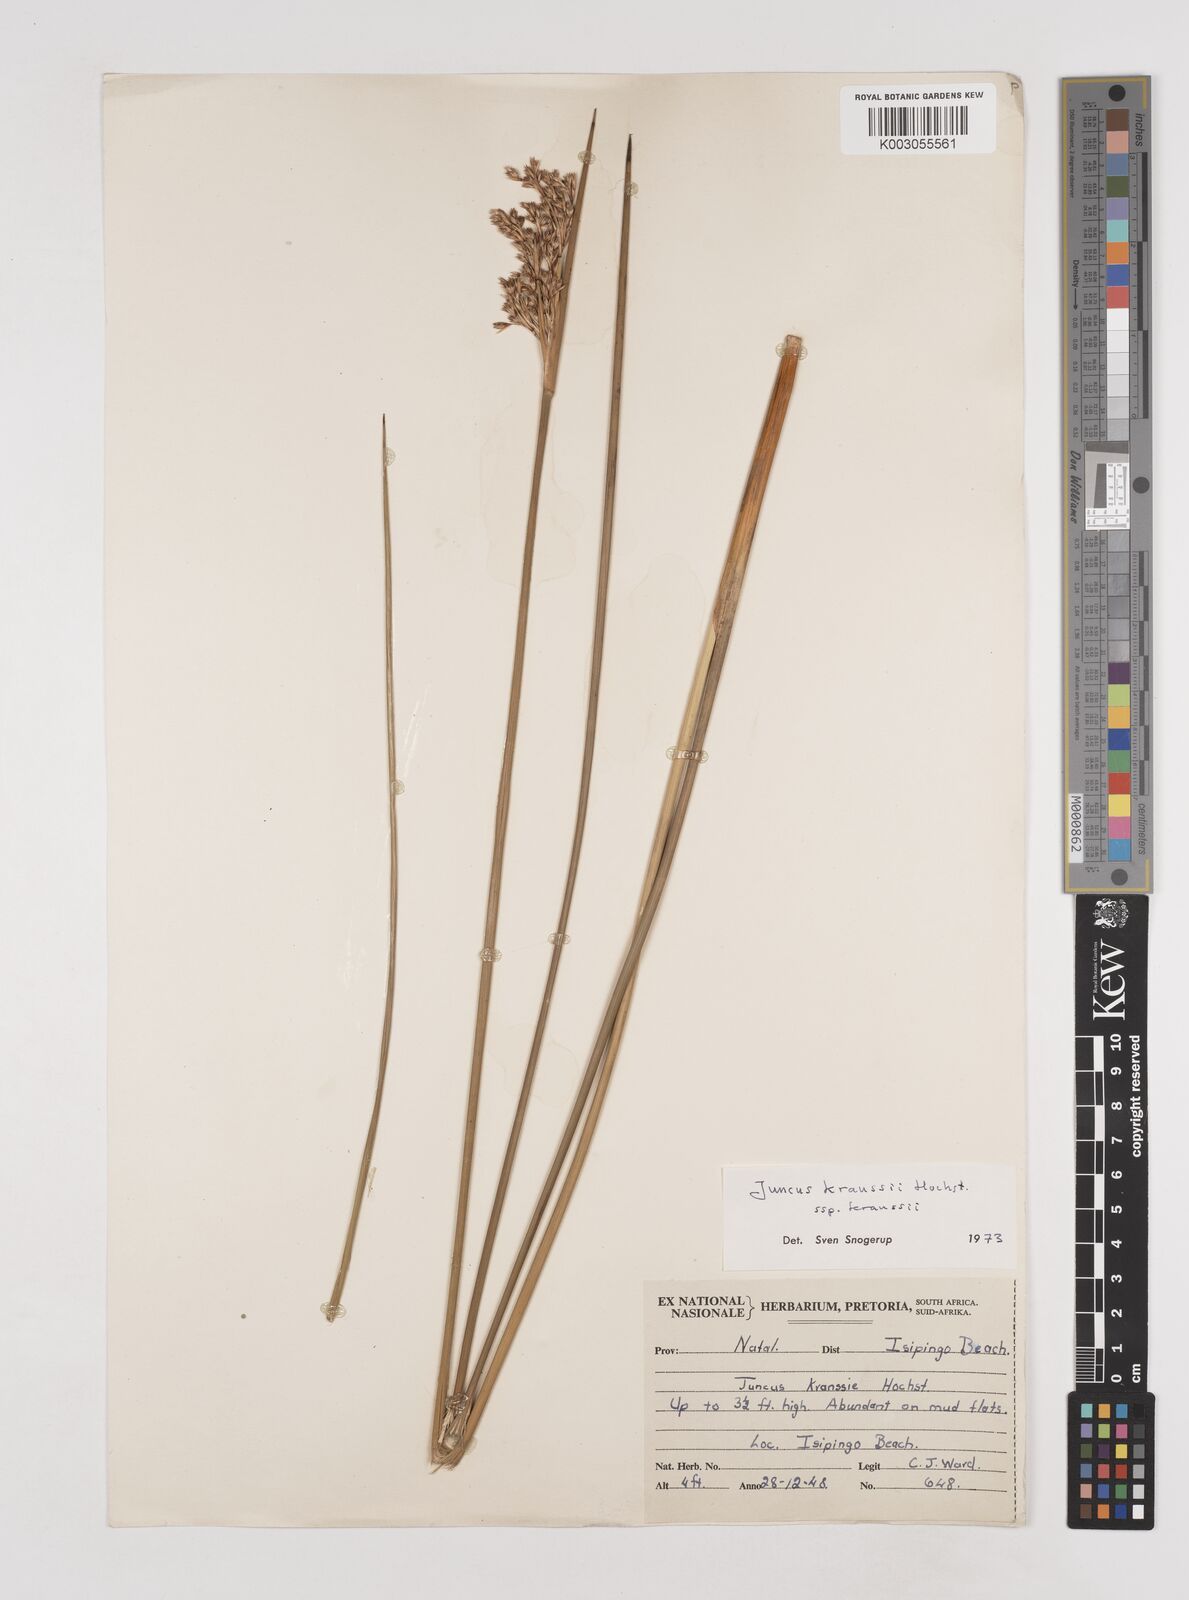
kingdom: Plantae
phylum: Tracheophyta
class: Liliopsida
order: Poales
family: Juncaceae
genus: Juncus
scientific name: Juncus kraussii
